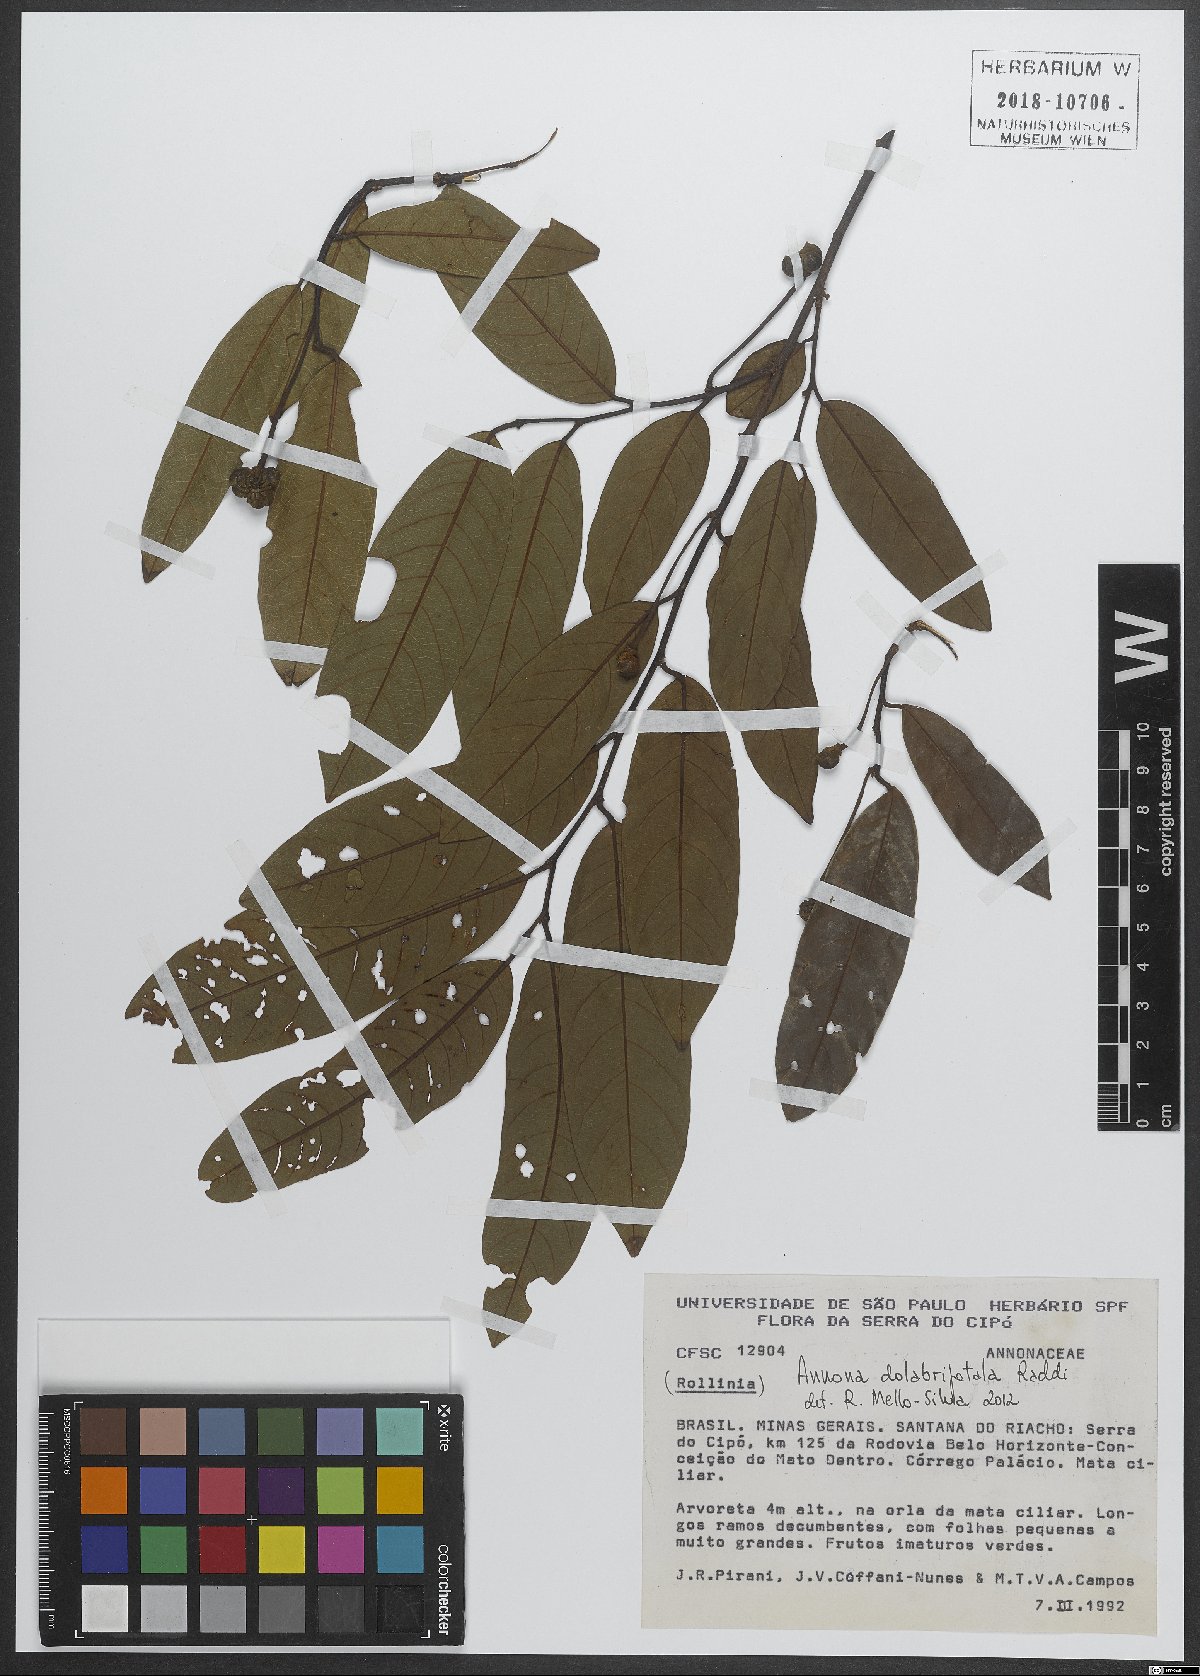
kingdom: Plantae
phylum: Tracheophyta
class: Magnoliopsida
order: Magnoliales
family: Annonaceae
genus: Annona
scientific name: Annona dolabripetala
